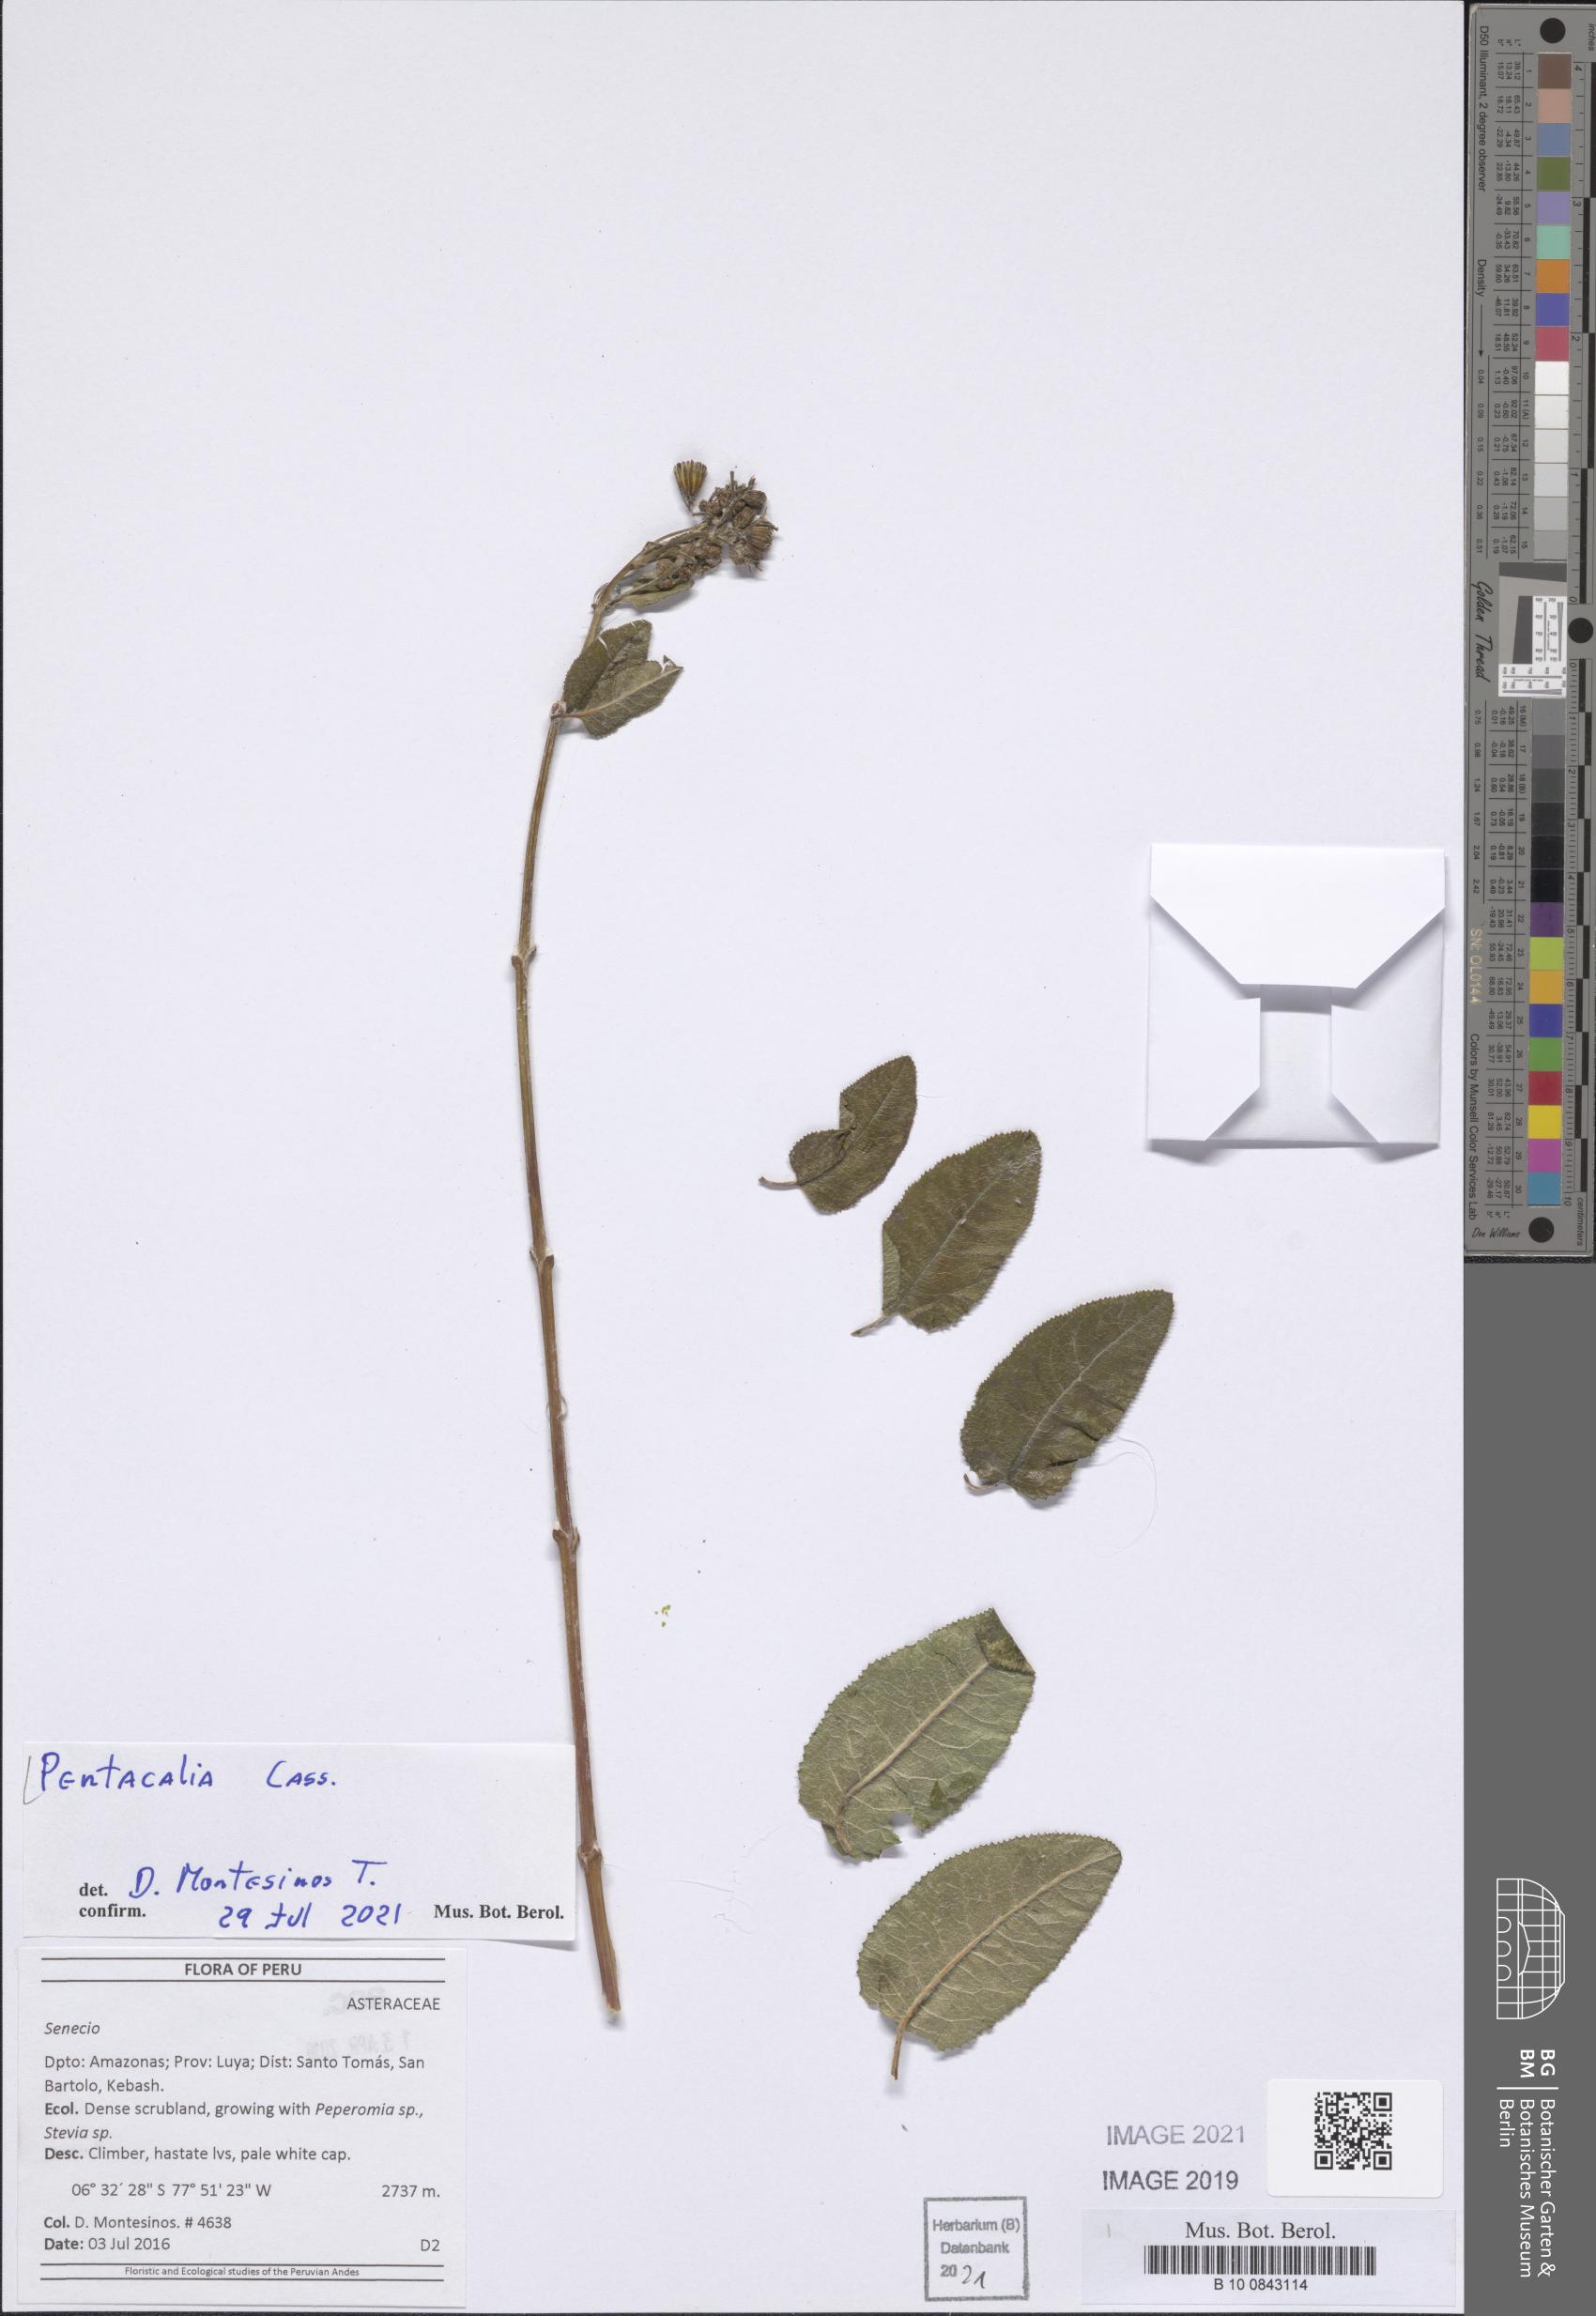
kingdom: Plantae
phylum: Tracheophyta
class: Magnoliopsida
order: Asterales
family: Asteraceae
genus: Pentacalia
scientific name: Pentacalia petiolincrassata
